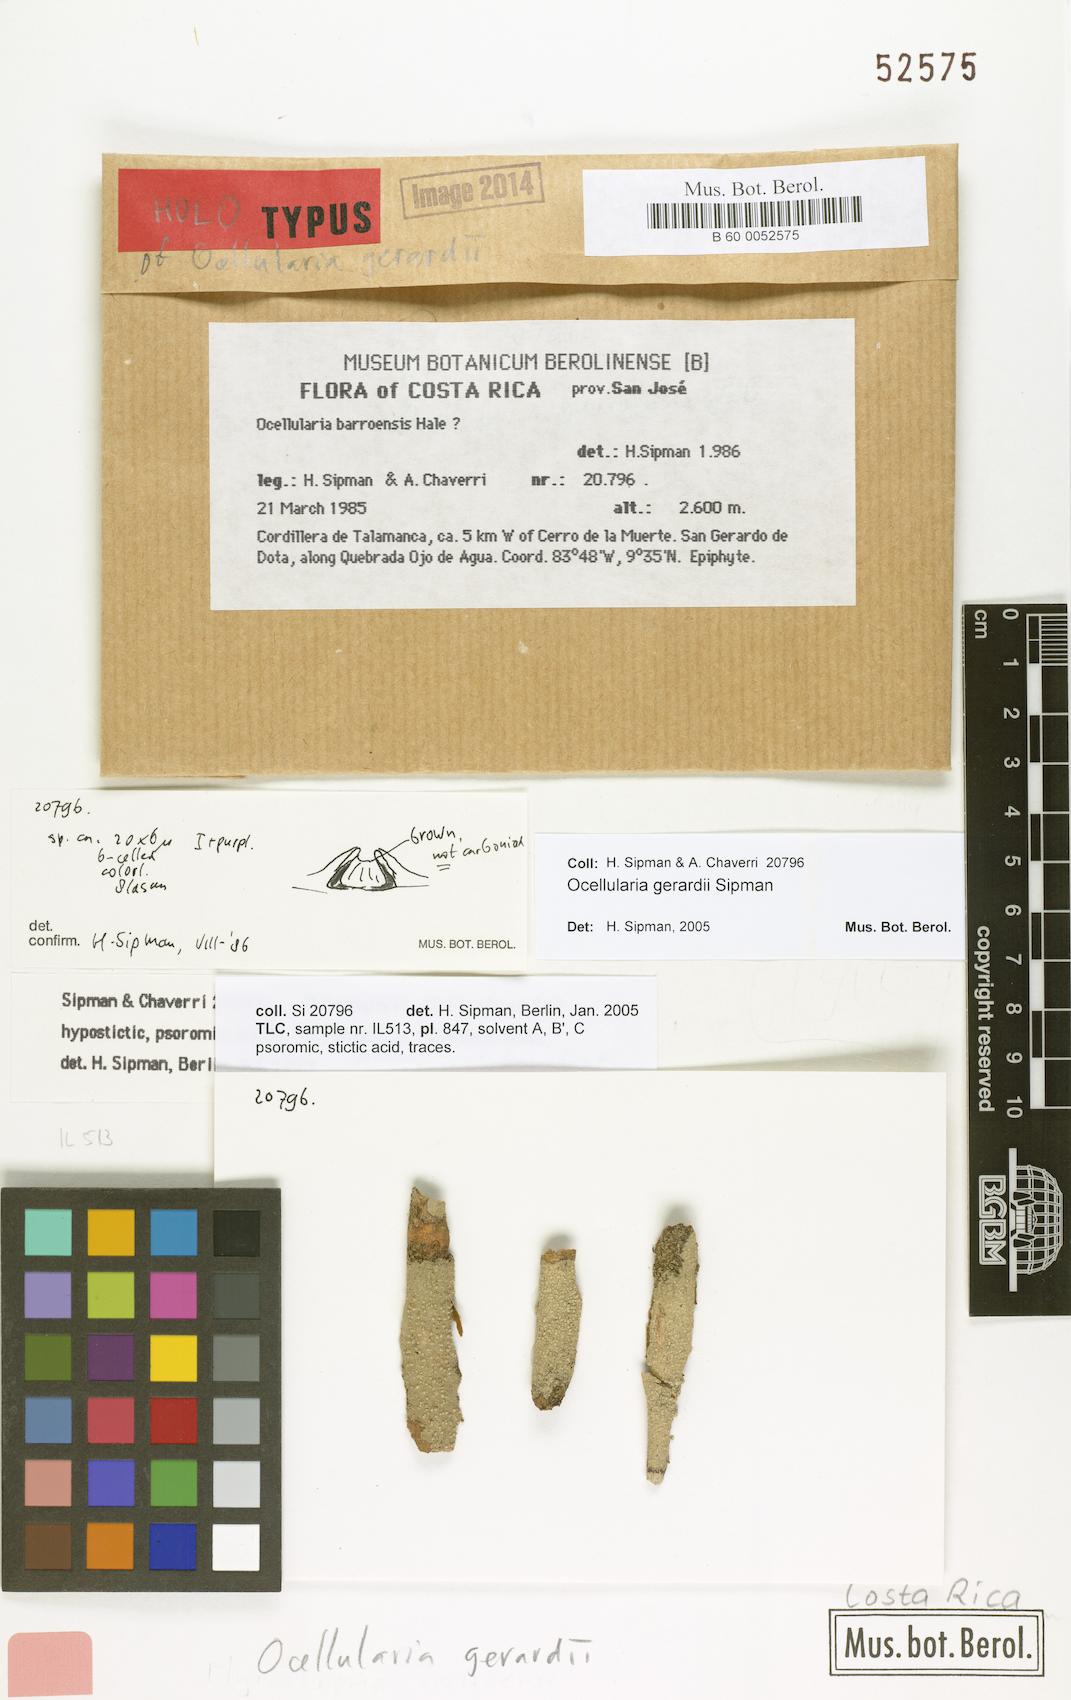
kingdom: Fungi
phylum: Ascomycota
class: Lecanoromycetes
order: Ostropales
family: Graphidaceae
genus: Ocellularia
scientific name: Ocellularia gerardoi
